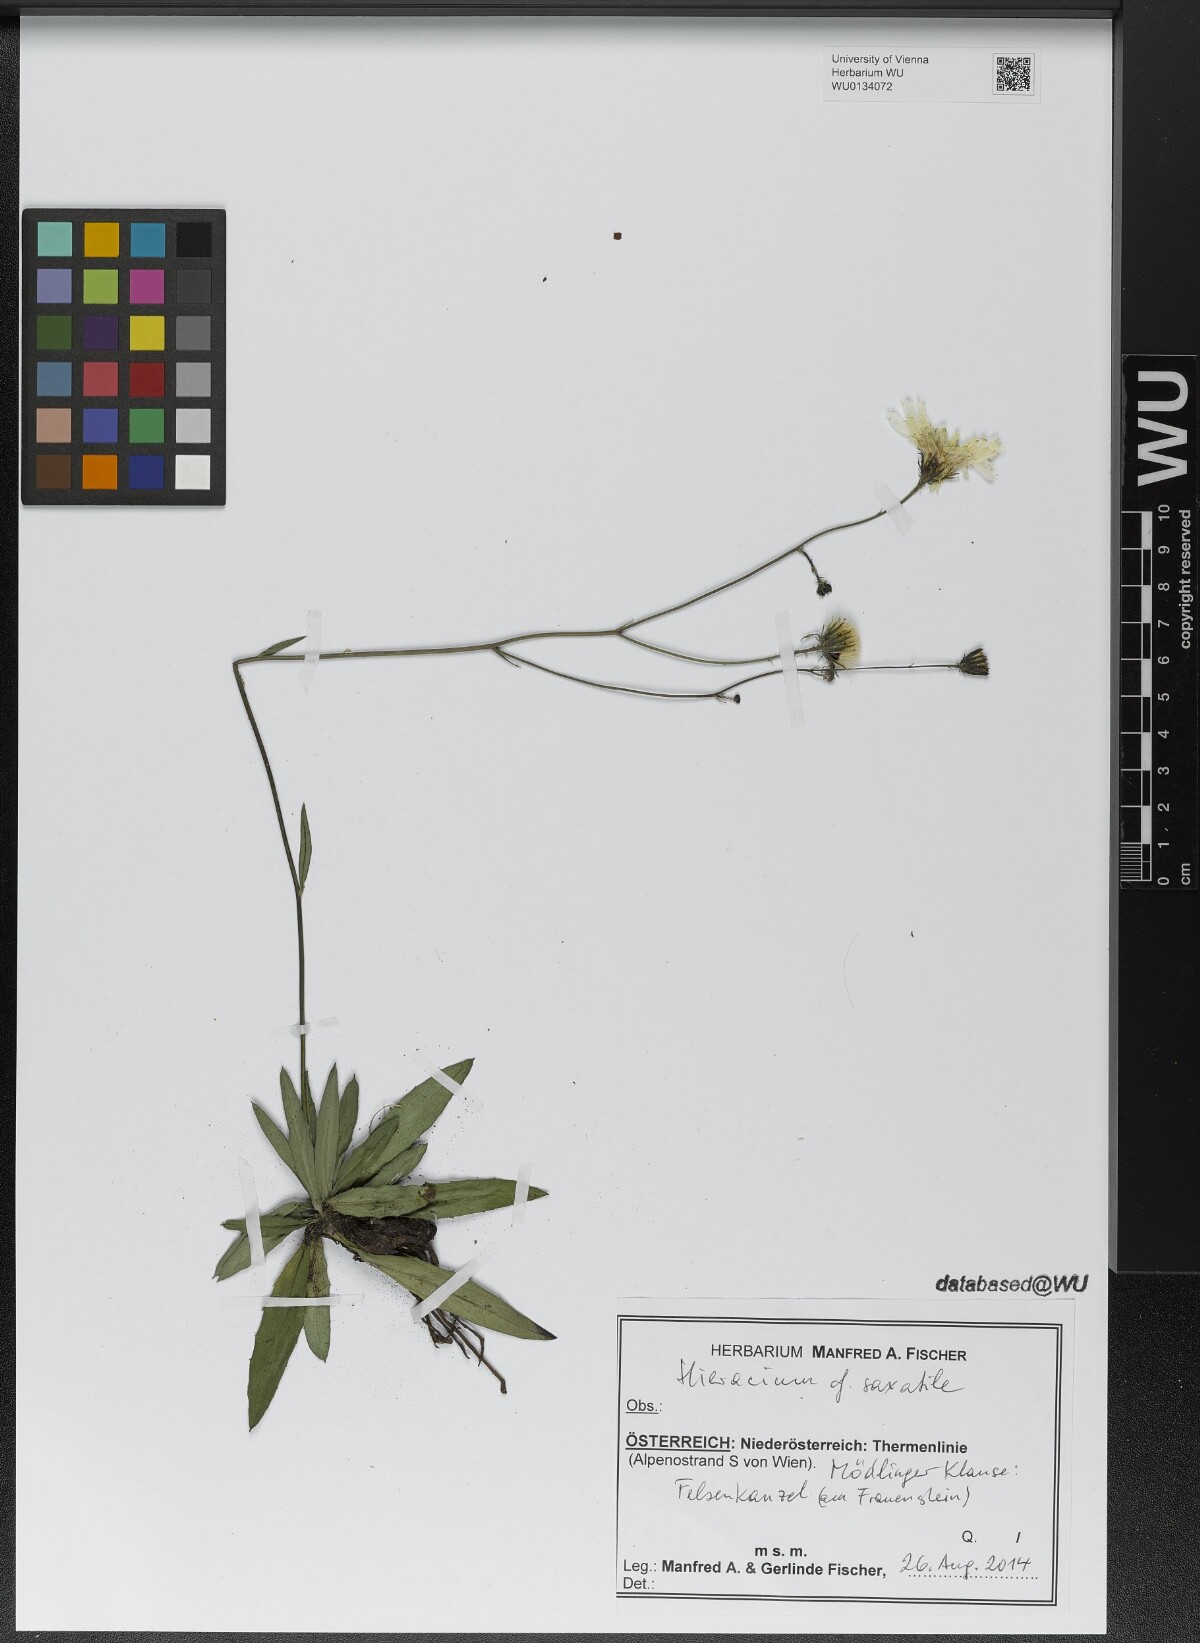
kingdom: Plantae
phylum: Tracheophyta
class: Magnoliopsida
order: Asterales
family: Asteraceae
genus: Hieracium
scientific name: Hieracium saxatile
